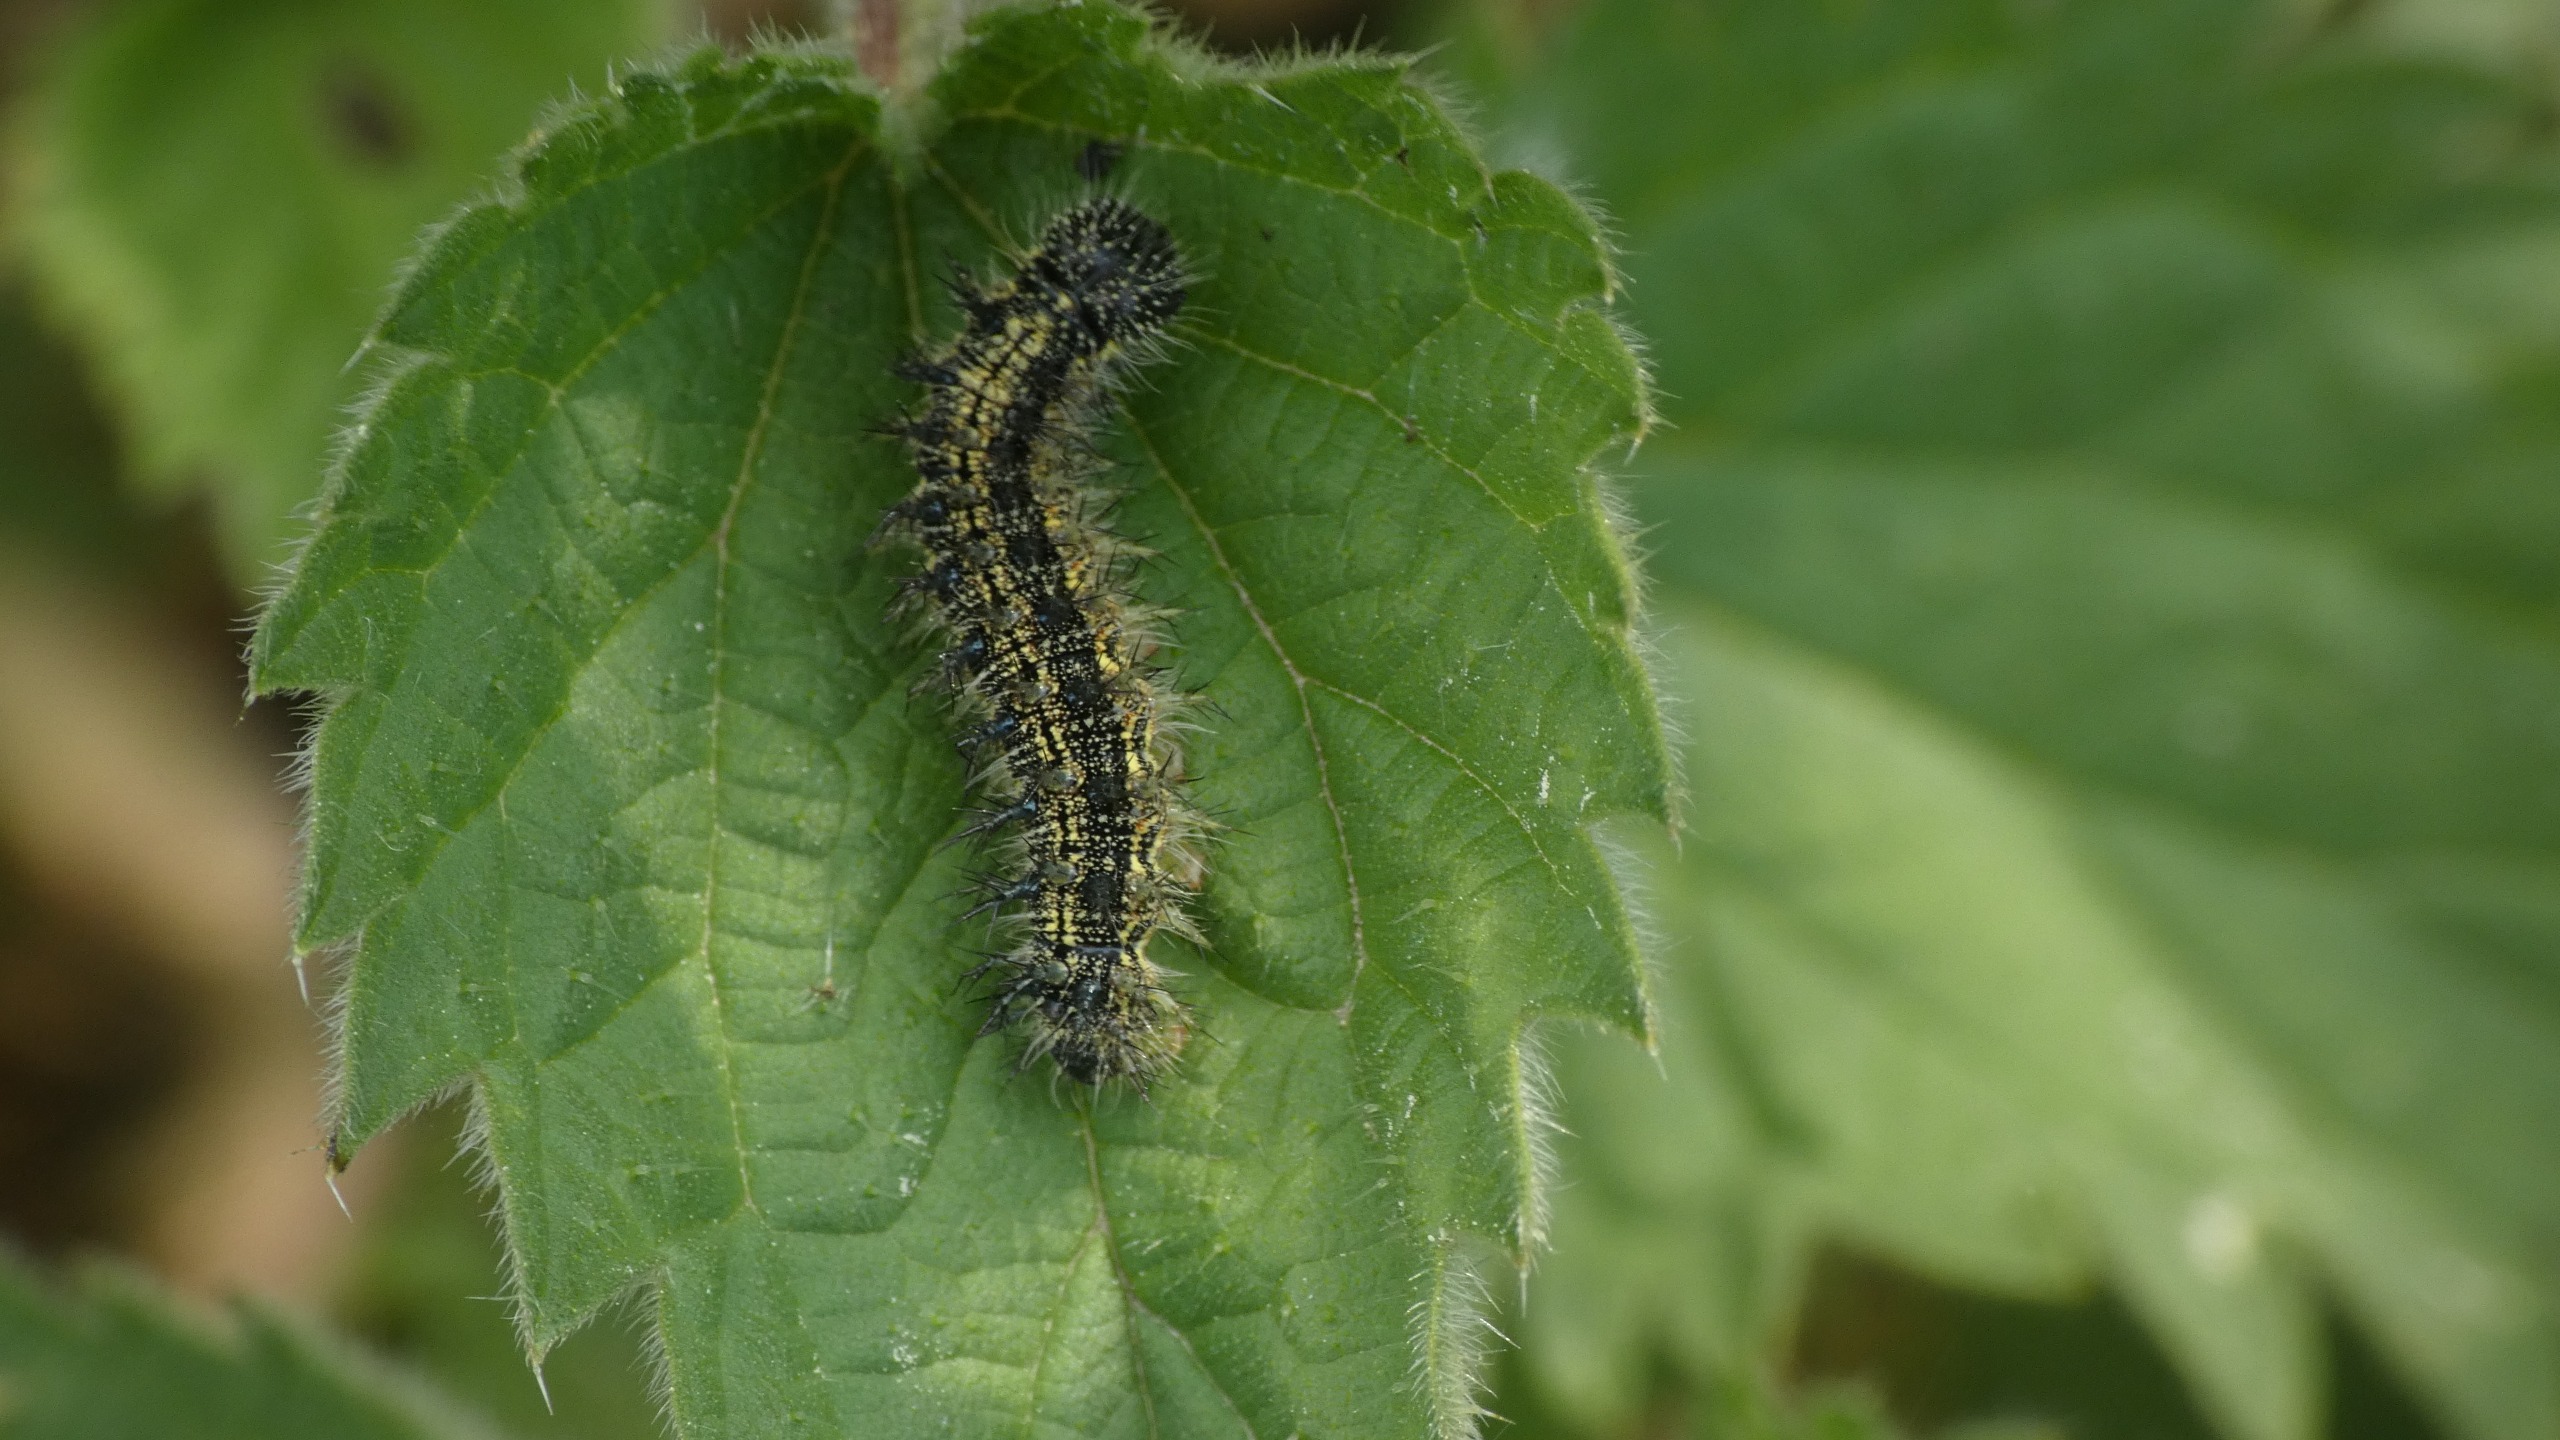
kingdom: Animalia
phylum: Arthropoda
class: Insecta
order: Lepidoptera
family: Nymphalidae
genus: Aglais
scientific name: Aglais urticae
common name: Nældens takvinge
